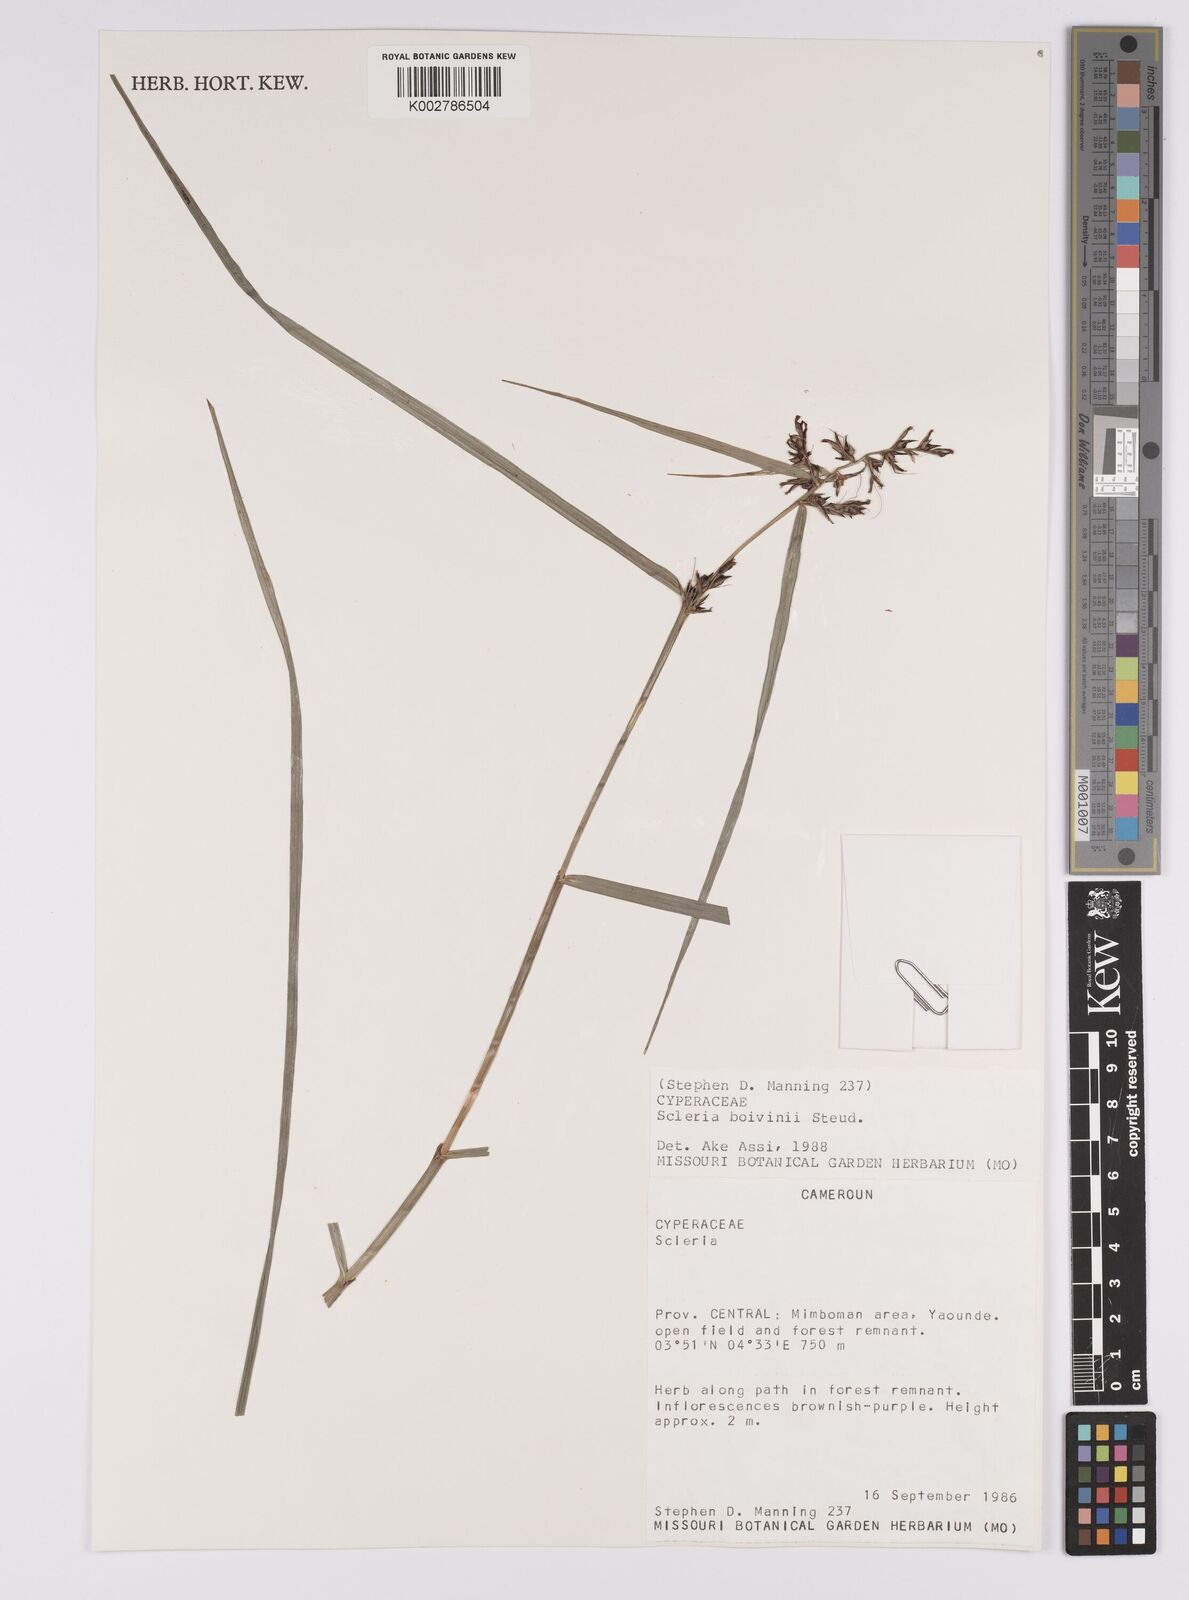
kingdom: Plantae
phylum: Tracheophyta
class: Liliopsida
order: Poales
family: Cyperaceae
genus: Scleria
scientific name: Scleria boivinii
